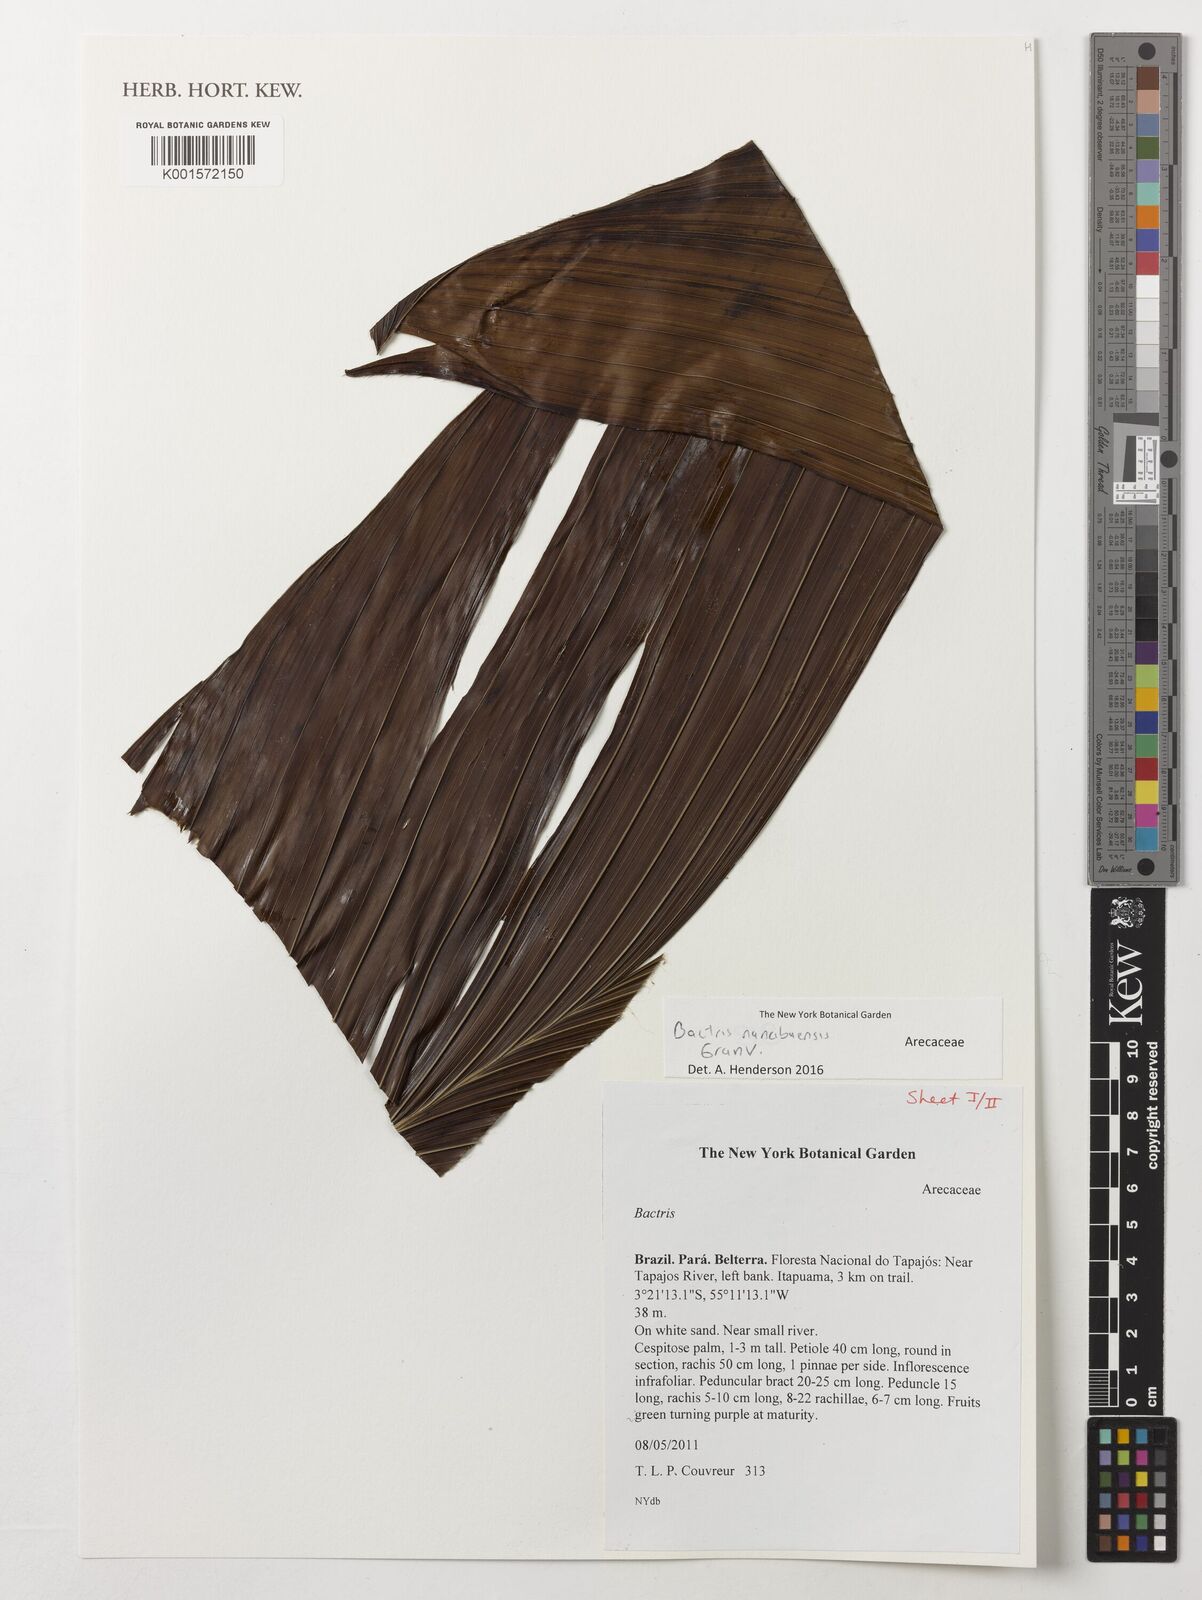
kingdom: Plantae
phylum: Tracheophyta
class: Liliopsida
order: Arecales
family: Arecaceae
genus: Bactris
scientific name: Bactris nancibaensis
